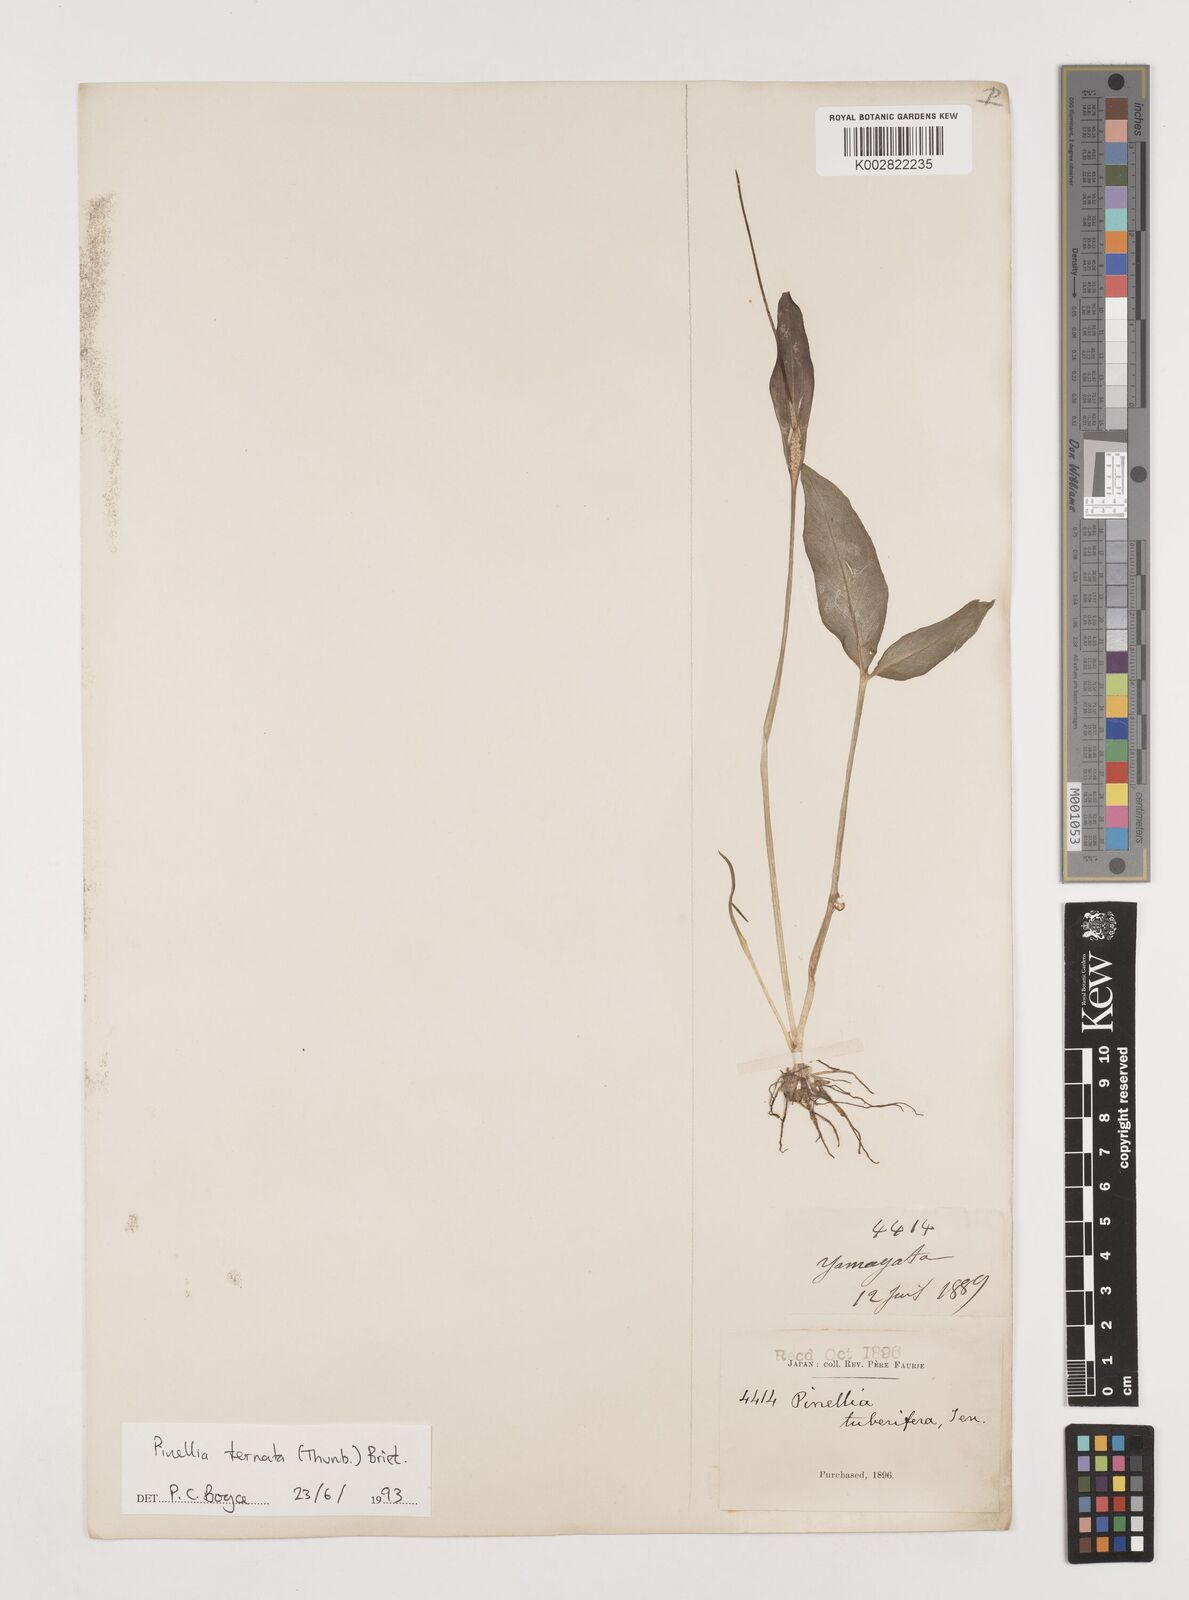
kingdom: Plantae
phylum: Tracheophyta
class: Liliopsida
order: Alismatales
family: Araceae
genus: Pinellia
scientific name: Pinellia ternata
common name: Pinellia
